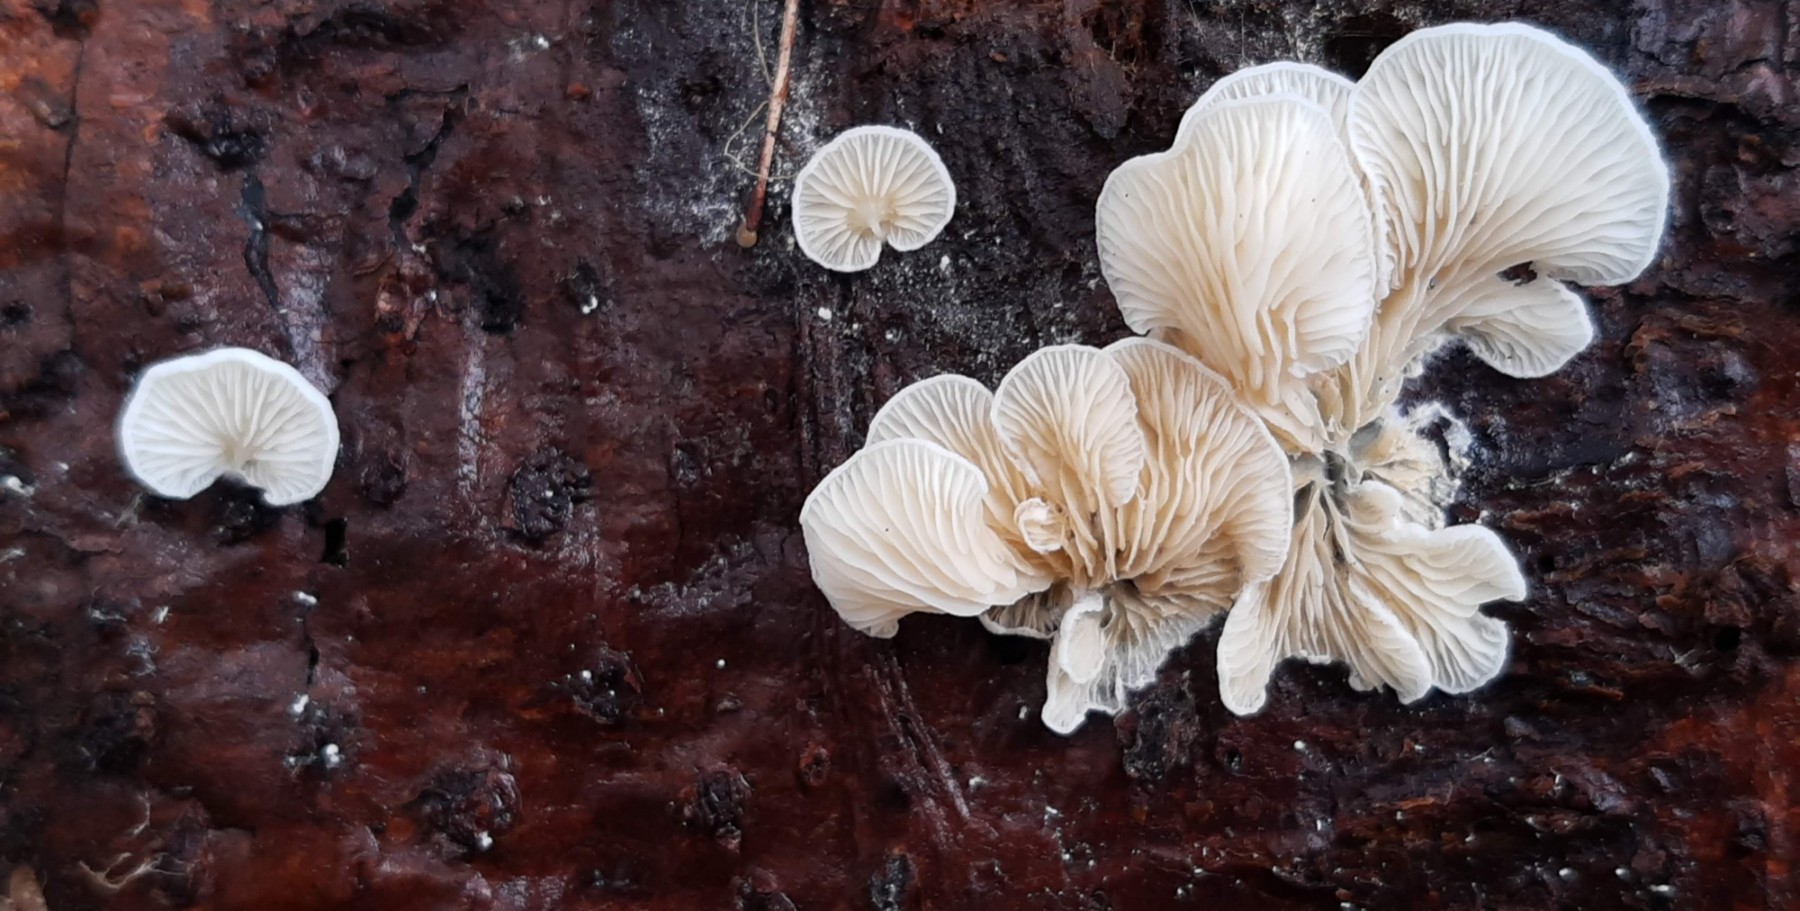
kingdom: Fungi
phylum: Basidiomycota
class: Agaricomycetes
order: Agaricales
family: Mycenaceae
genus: Panellus
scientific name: Panellus mitis
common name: mild epaulethat
